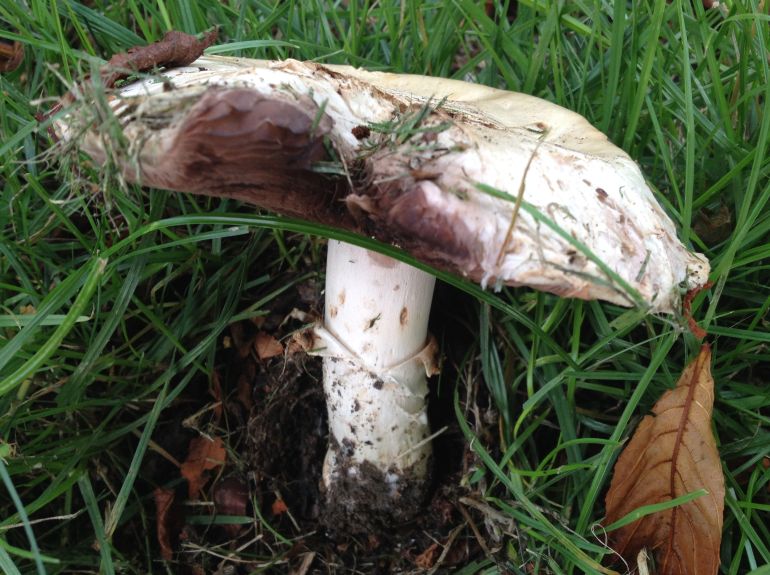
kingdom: Fungi
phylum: Basidiomycota
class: Agaricomycetes
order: Agaricales
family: Agaricaceae
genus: Agaricus
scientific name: Agaricus bitorquis
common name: vej-champignon
